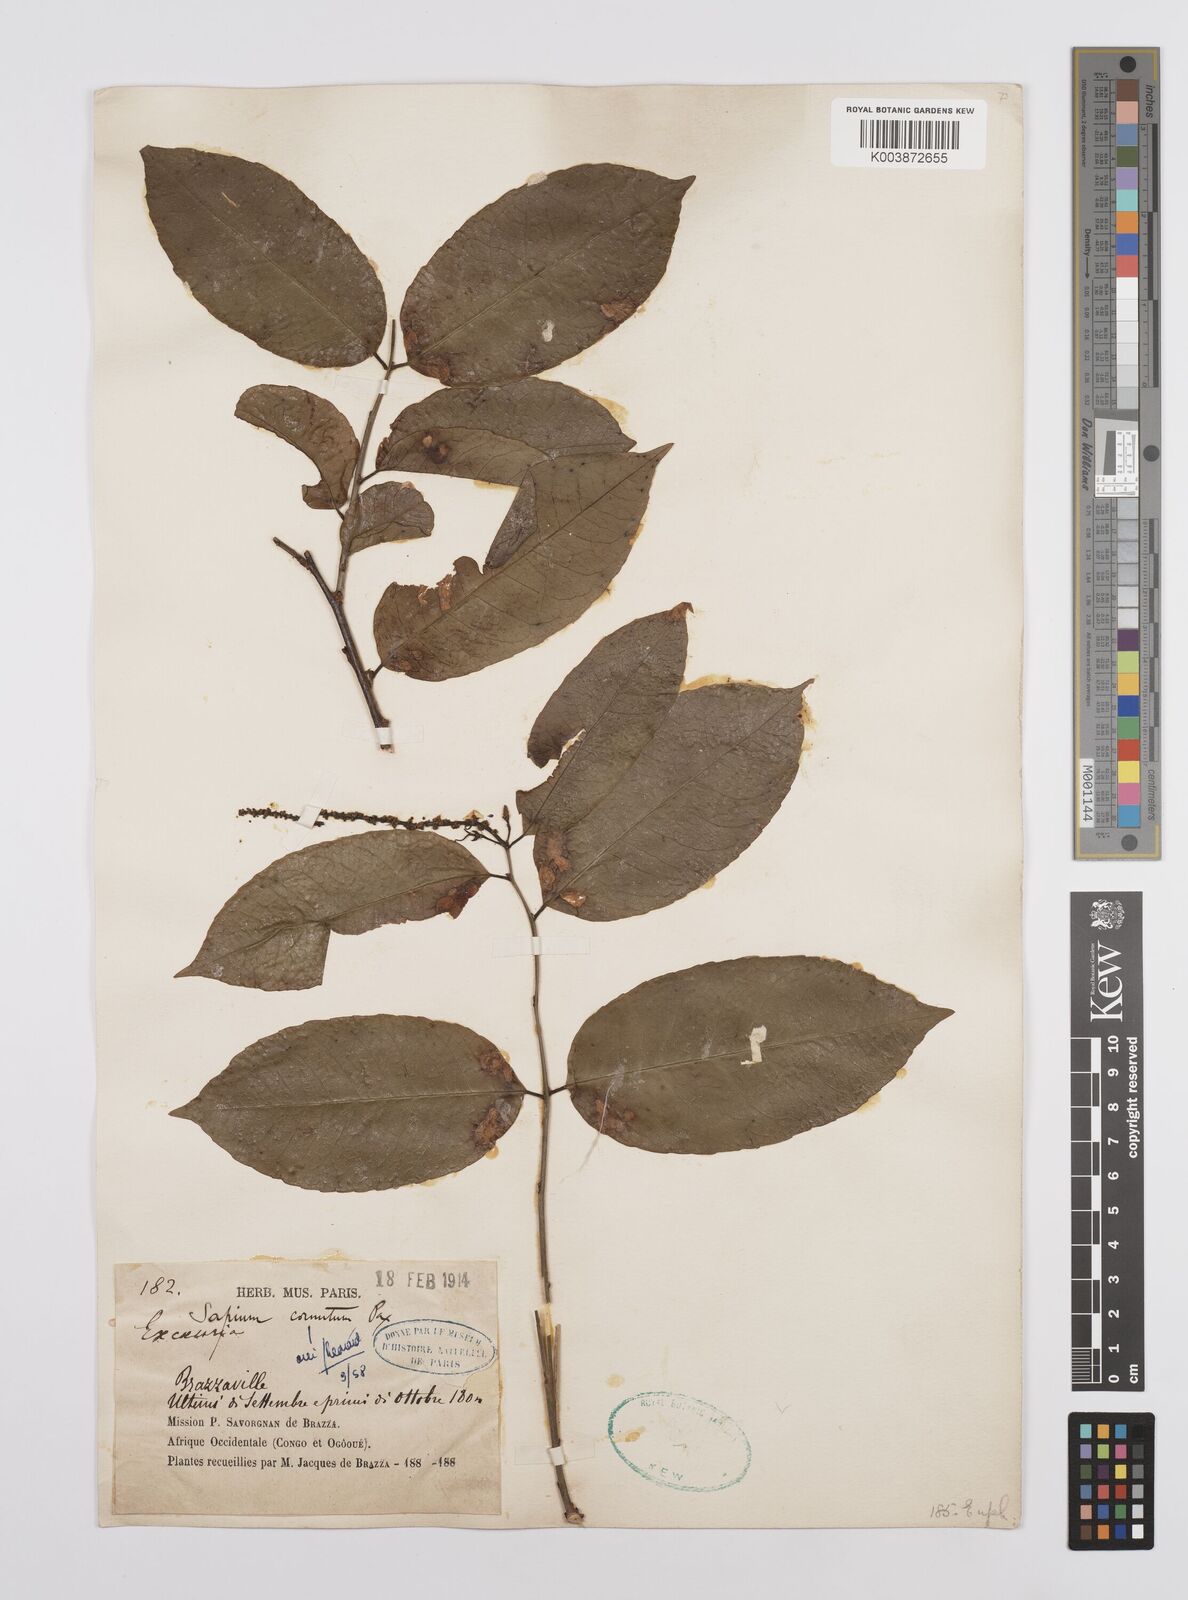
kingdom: Plantae
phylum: Tracheophyta
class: Magnoliopsida
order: Malpighiales
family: Euphorbiaceae
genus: Sclerocroton
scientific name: Sclerocroton cornutus
